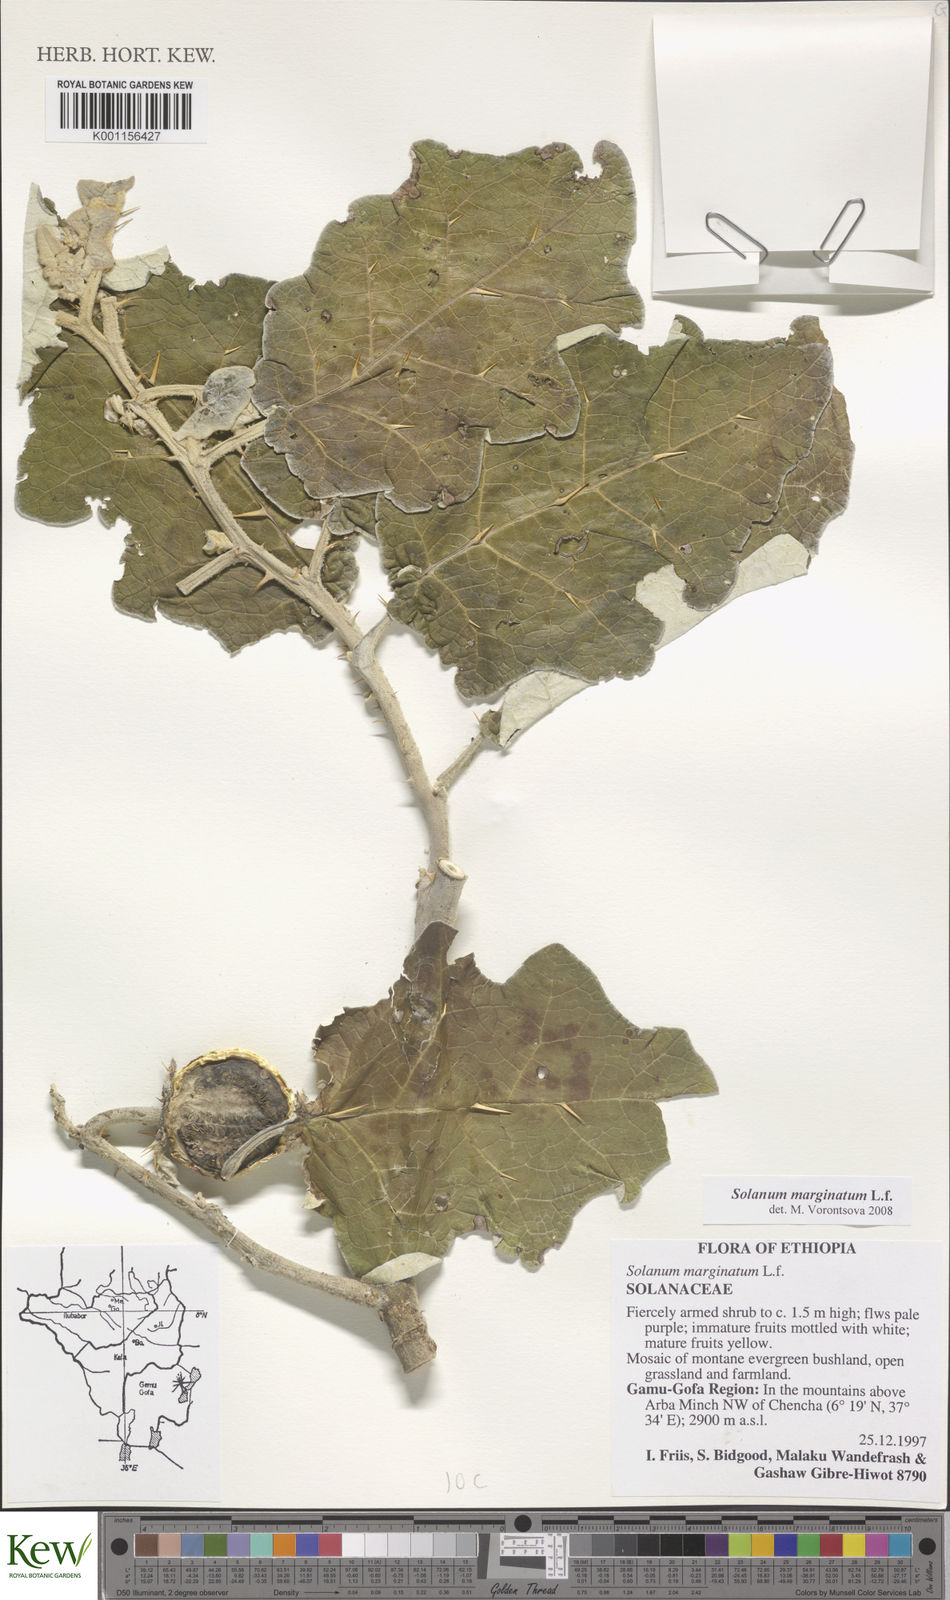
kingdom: Plantae
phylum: Tracheophyta
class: Magnoliopsida
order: Solanales
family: Solanaceae
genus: Solanum
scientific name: Solanum marginatum
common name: Purple african nightshade
